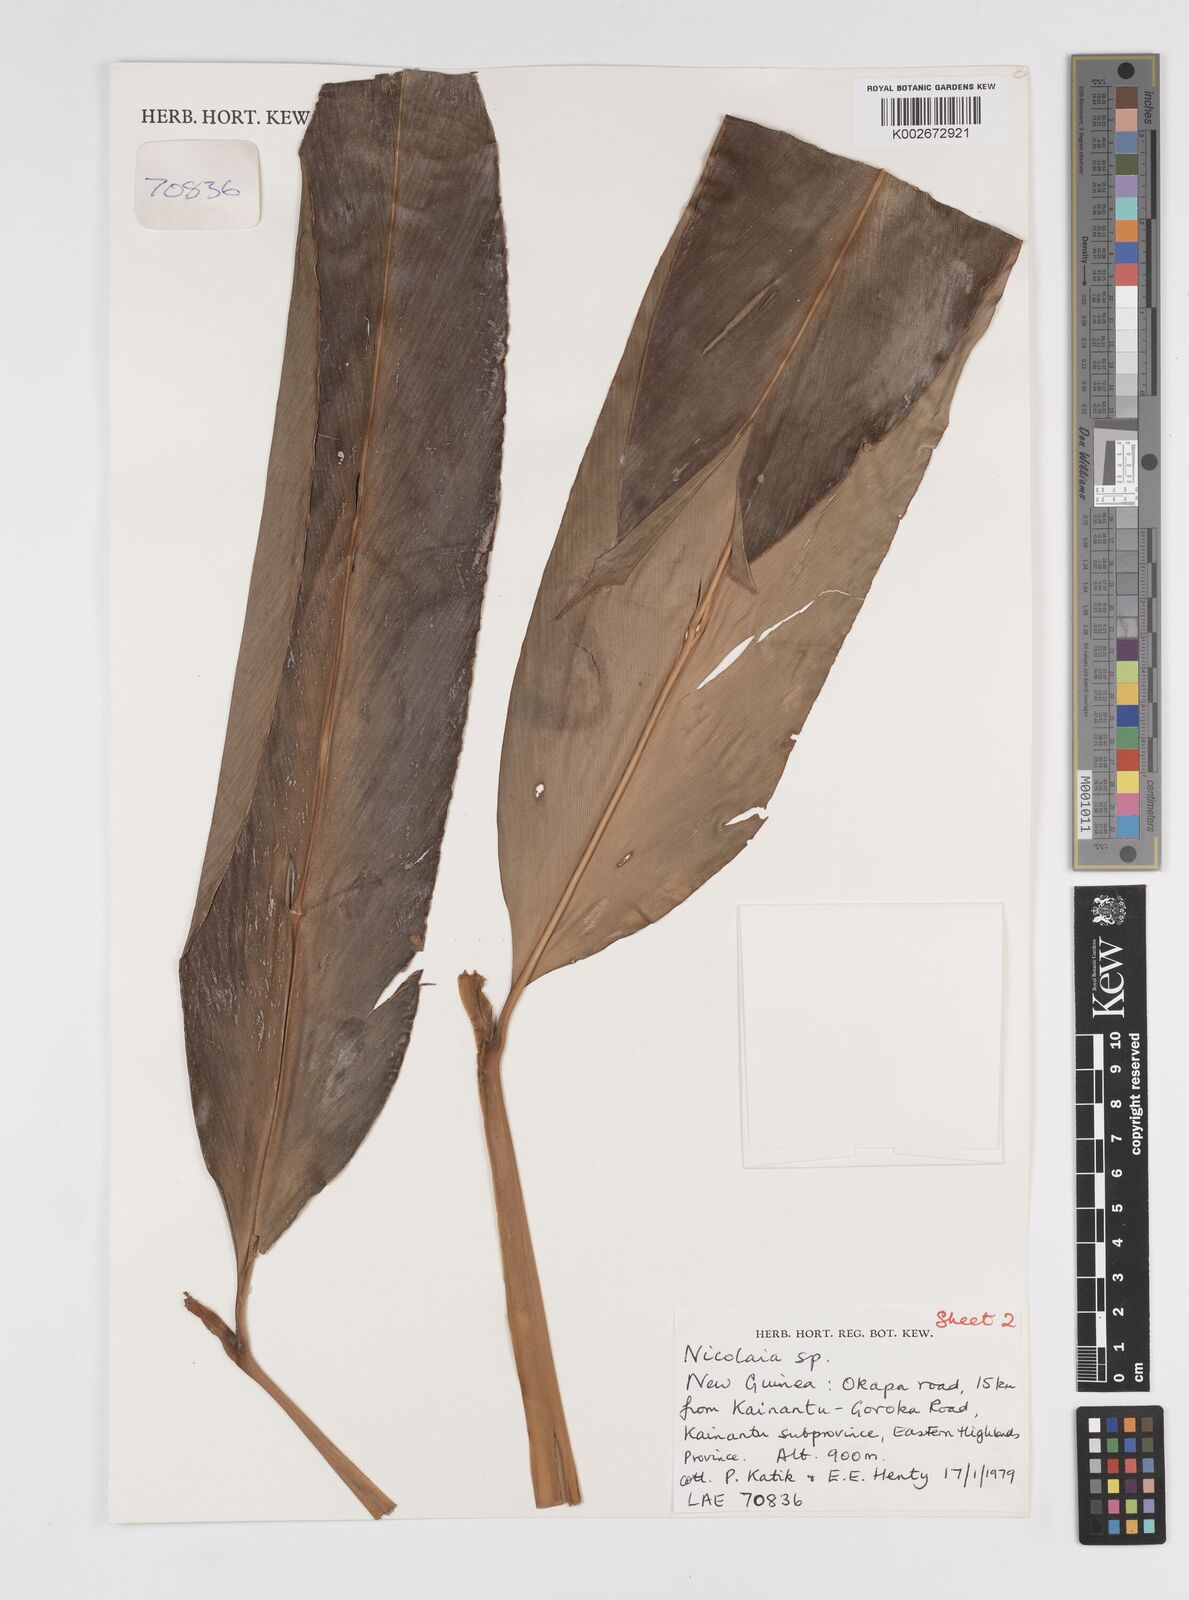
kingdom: Plantae
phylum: Tracheophyta
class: Liliopsida
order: Zingiberales
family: Zingiberaceae
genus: Etlingera
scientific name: Etlingera
